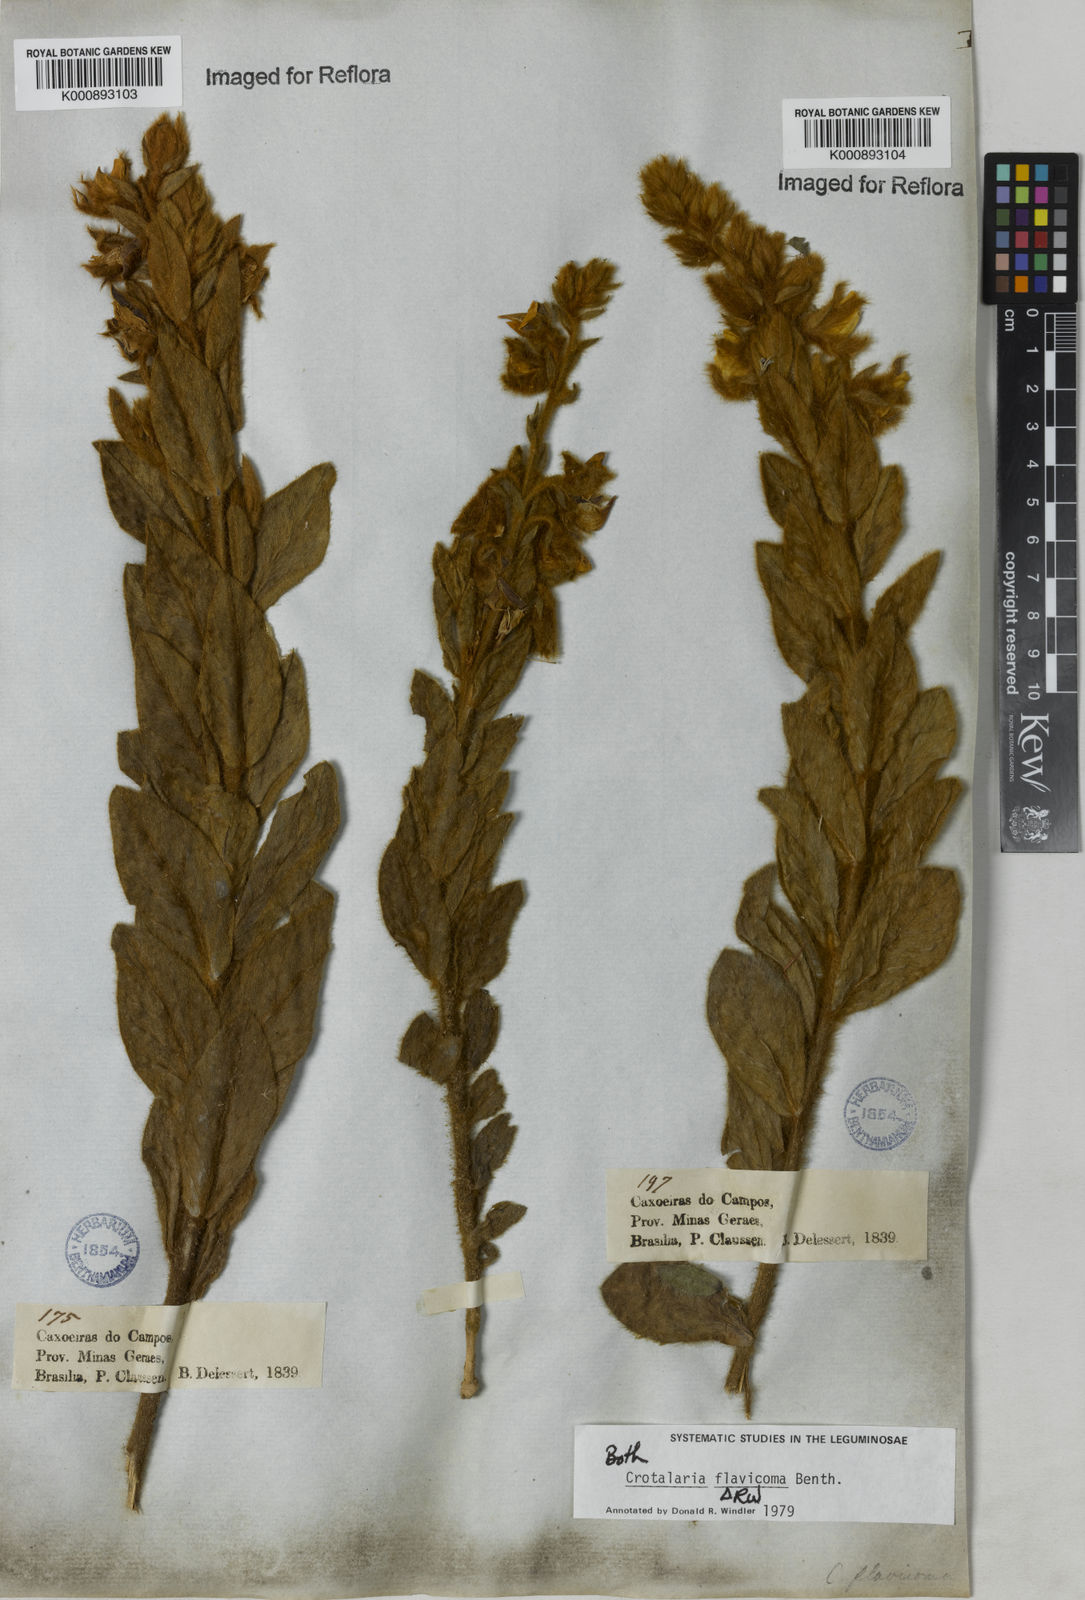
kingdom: Plantae
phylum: Tracheophyta
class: Magnoliopsida
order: Fabales
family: Fabaceae
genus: Crotalaria
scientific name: Crotalaria flavicoma
